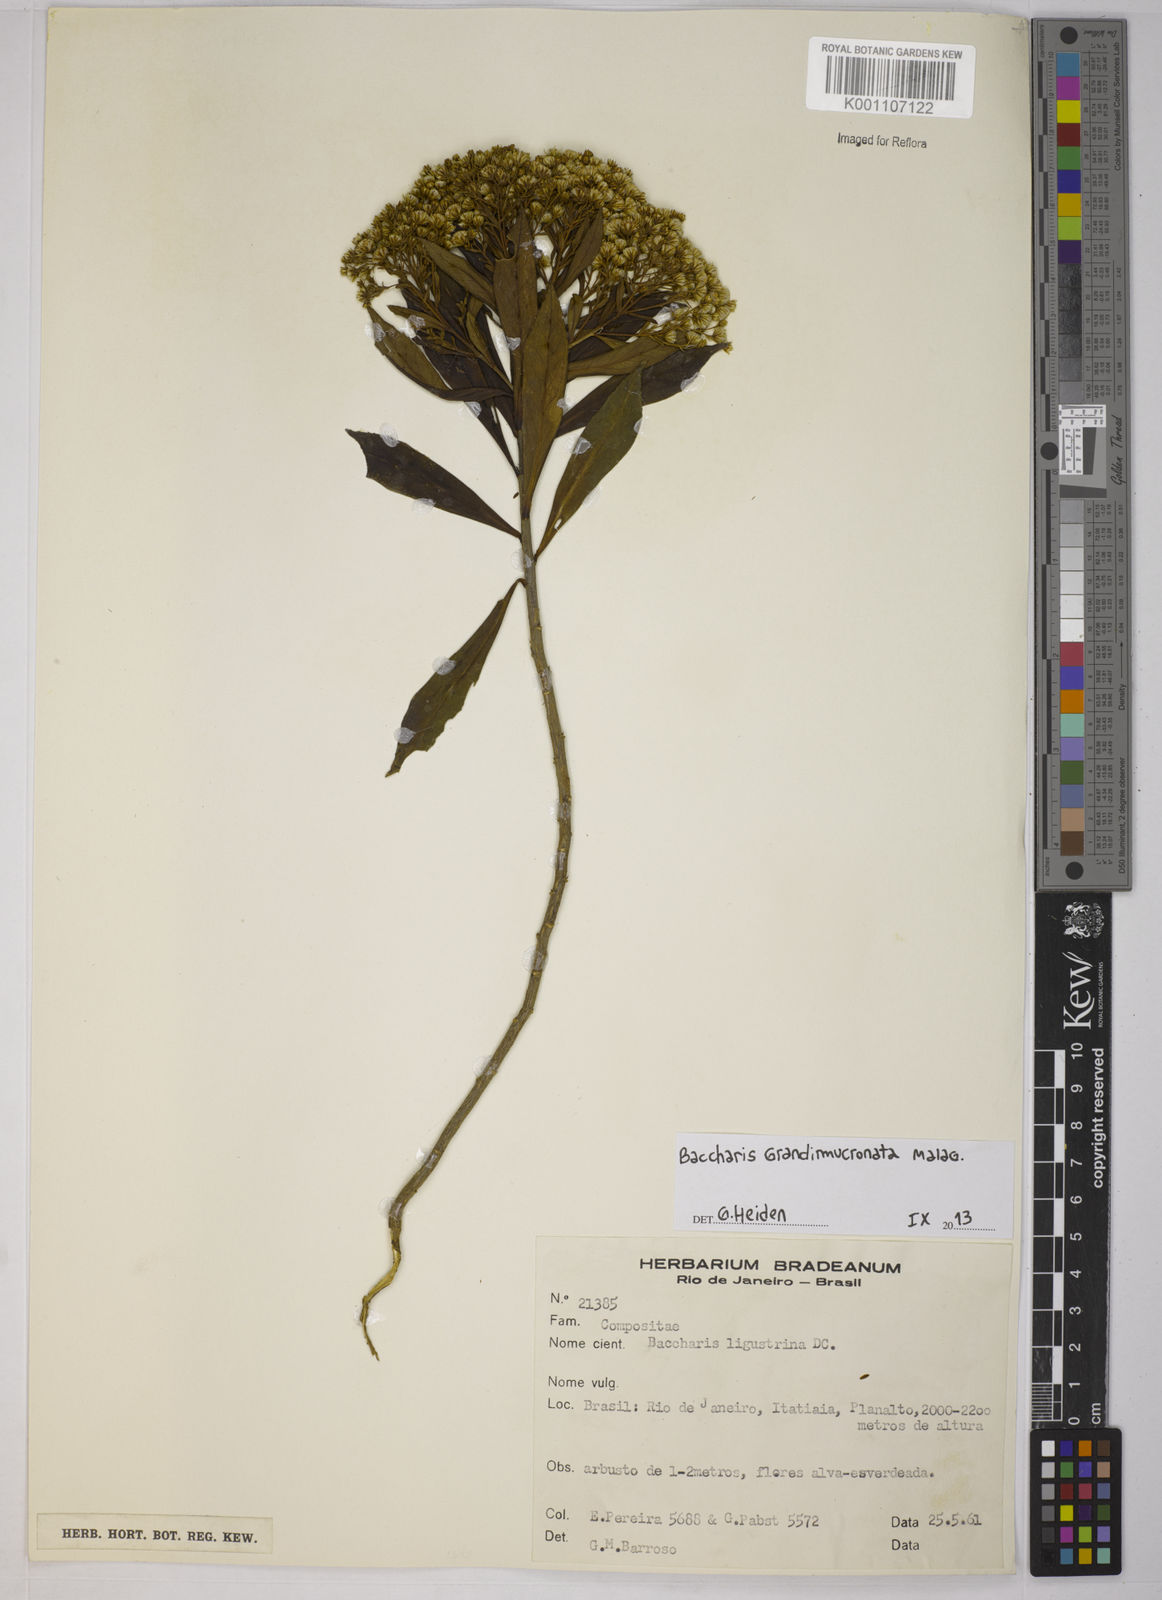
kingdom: Plantae
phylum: Tracheophyta
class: Magnoliopsida
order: Asterales
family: Asteraceae
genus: Baccharis
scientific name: Baccharis grandimucronata
